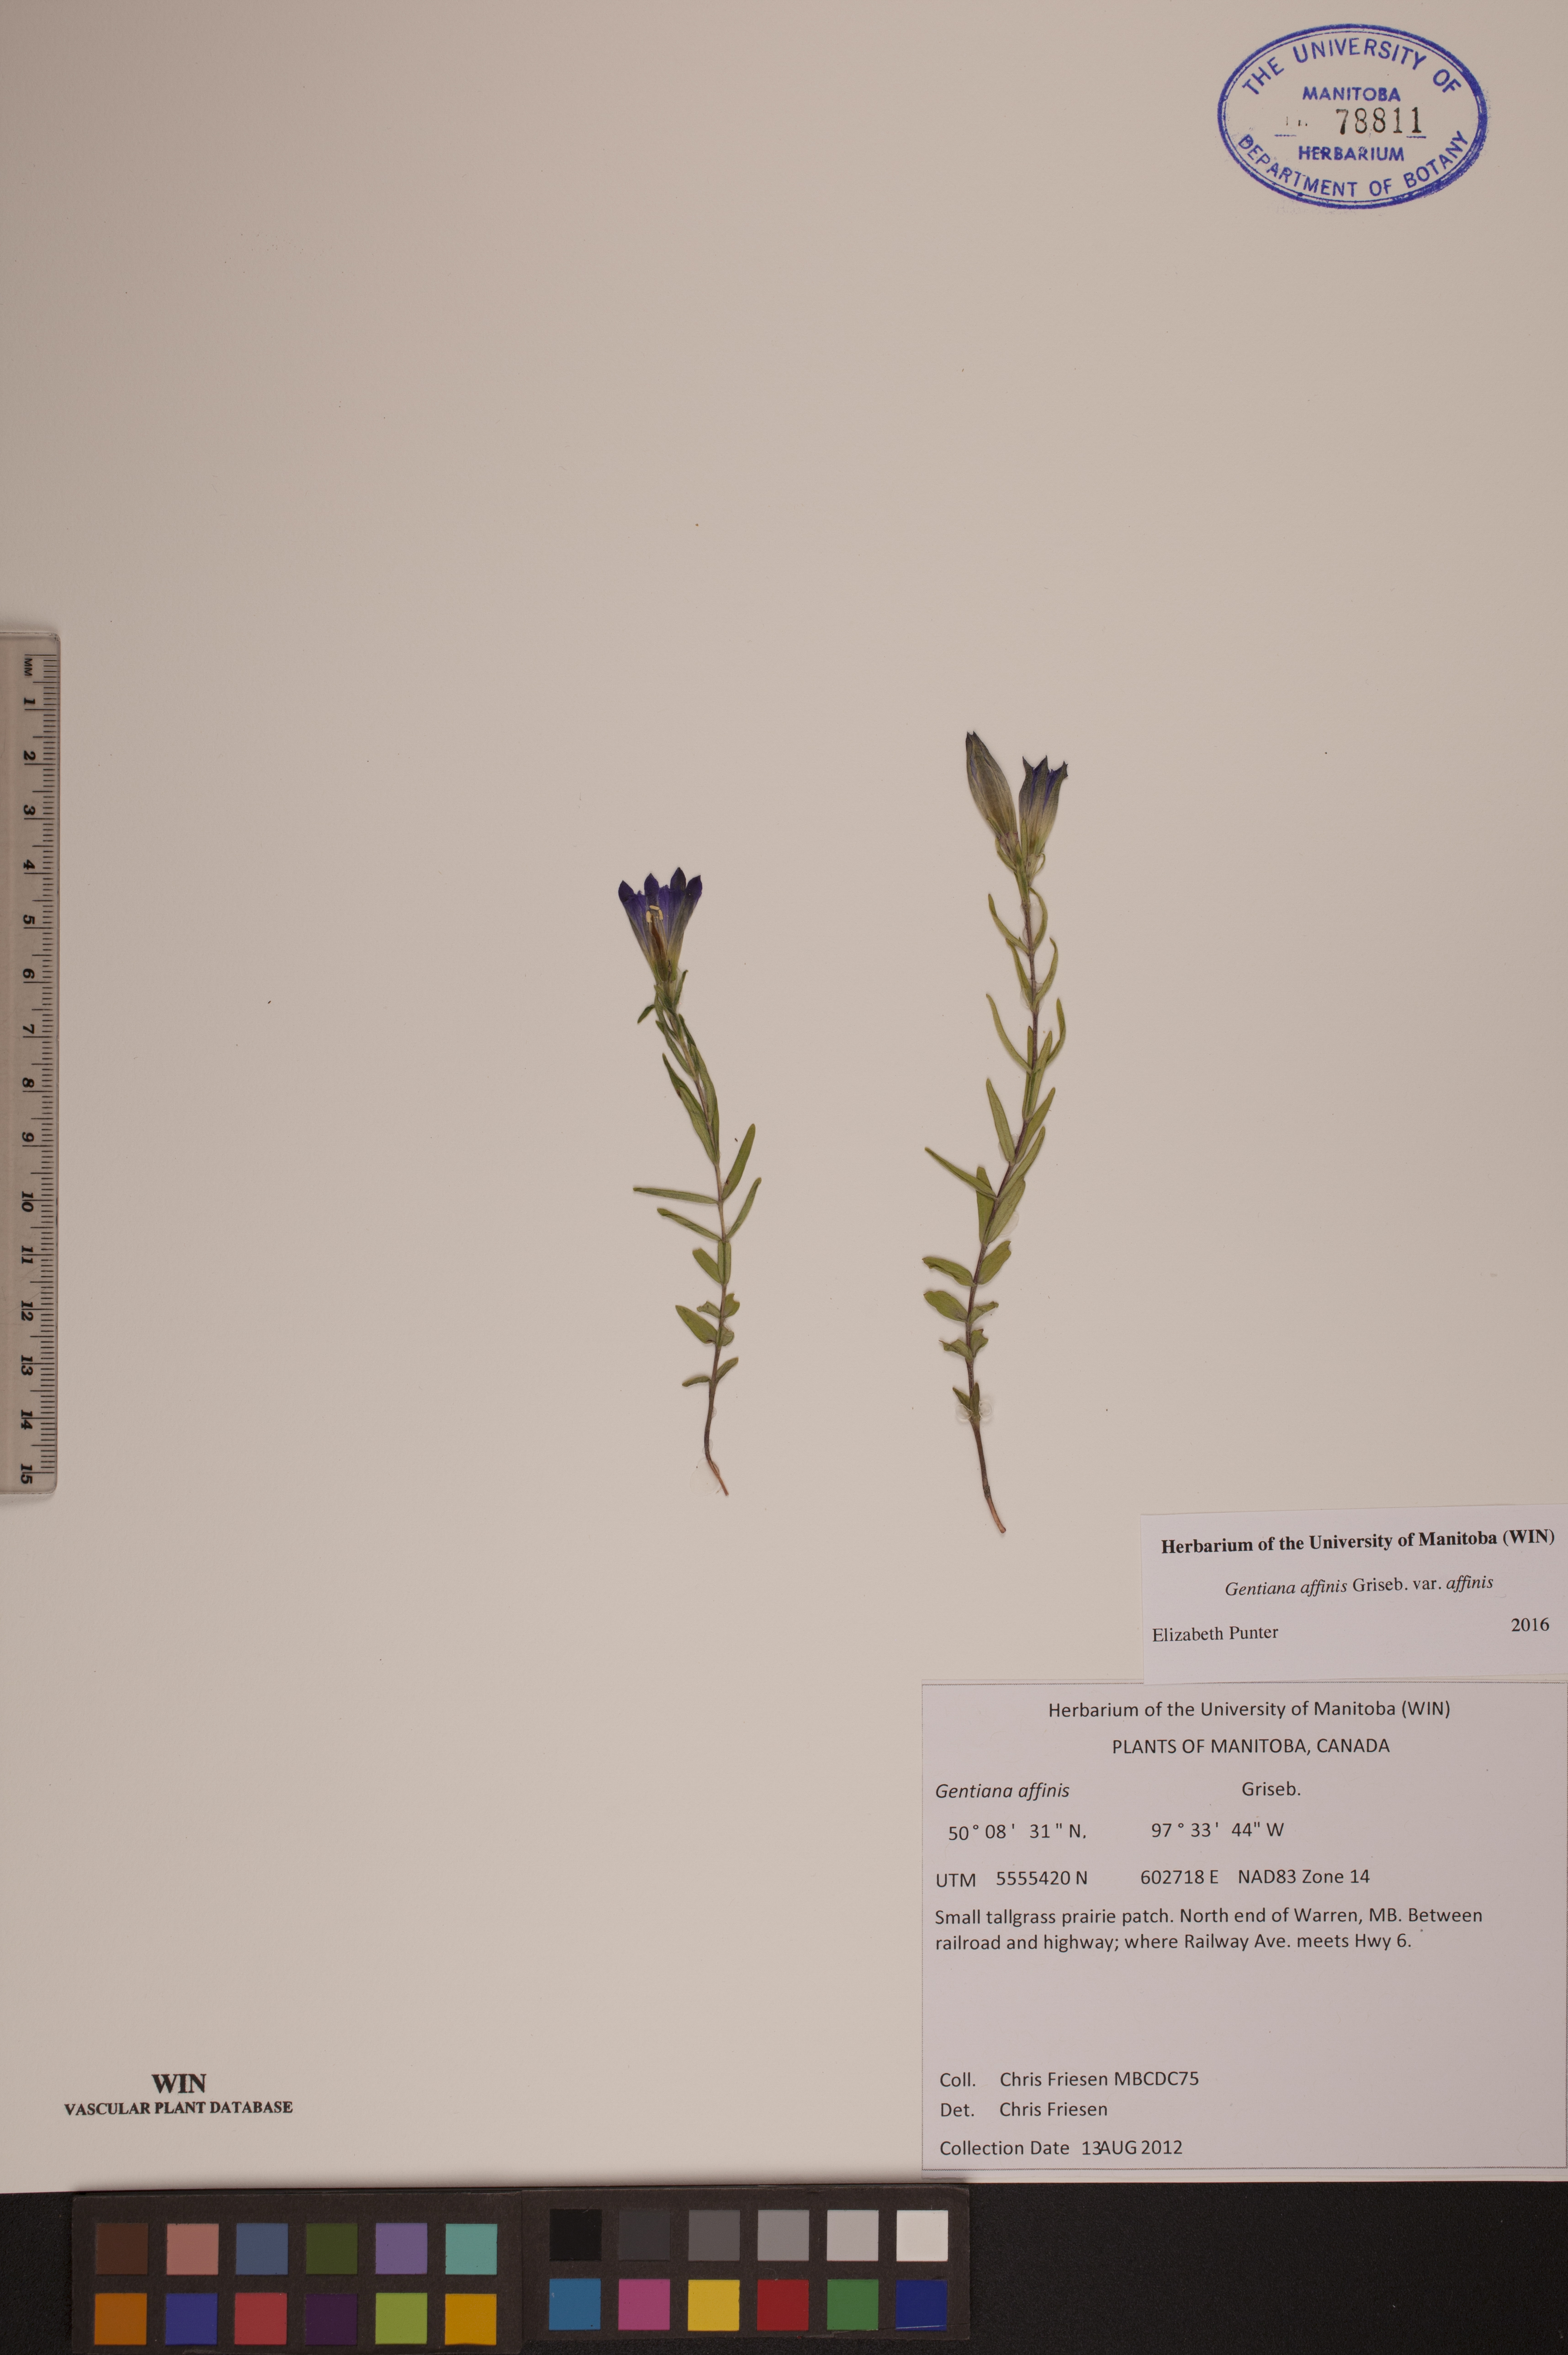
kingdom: Plantae
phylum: Tracheophyta
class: Magnoliopsida
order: Gentianales
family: Gentianaceae
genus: Gentiana
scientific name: Gentiana affinis
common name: Rocky mountain gentian
